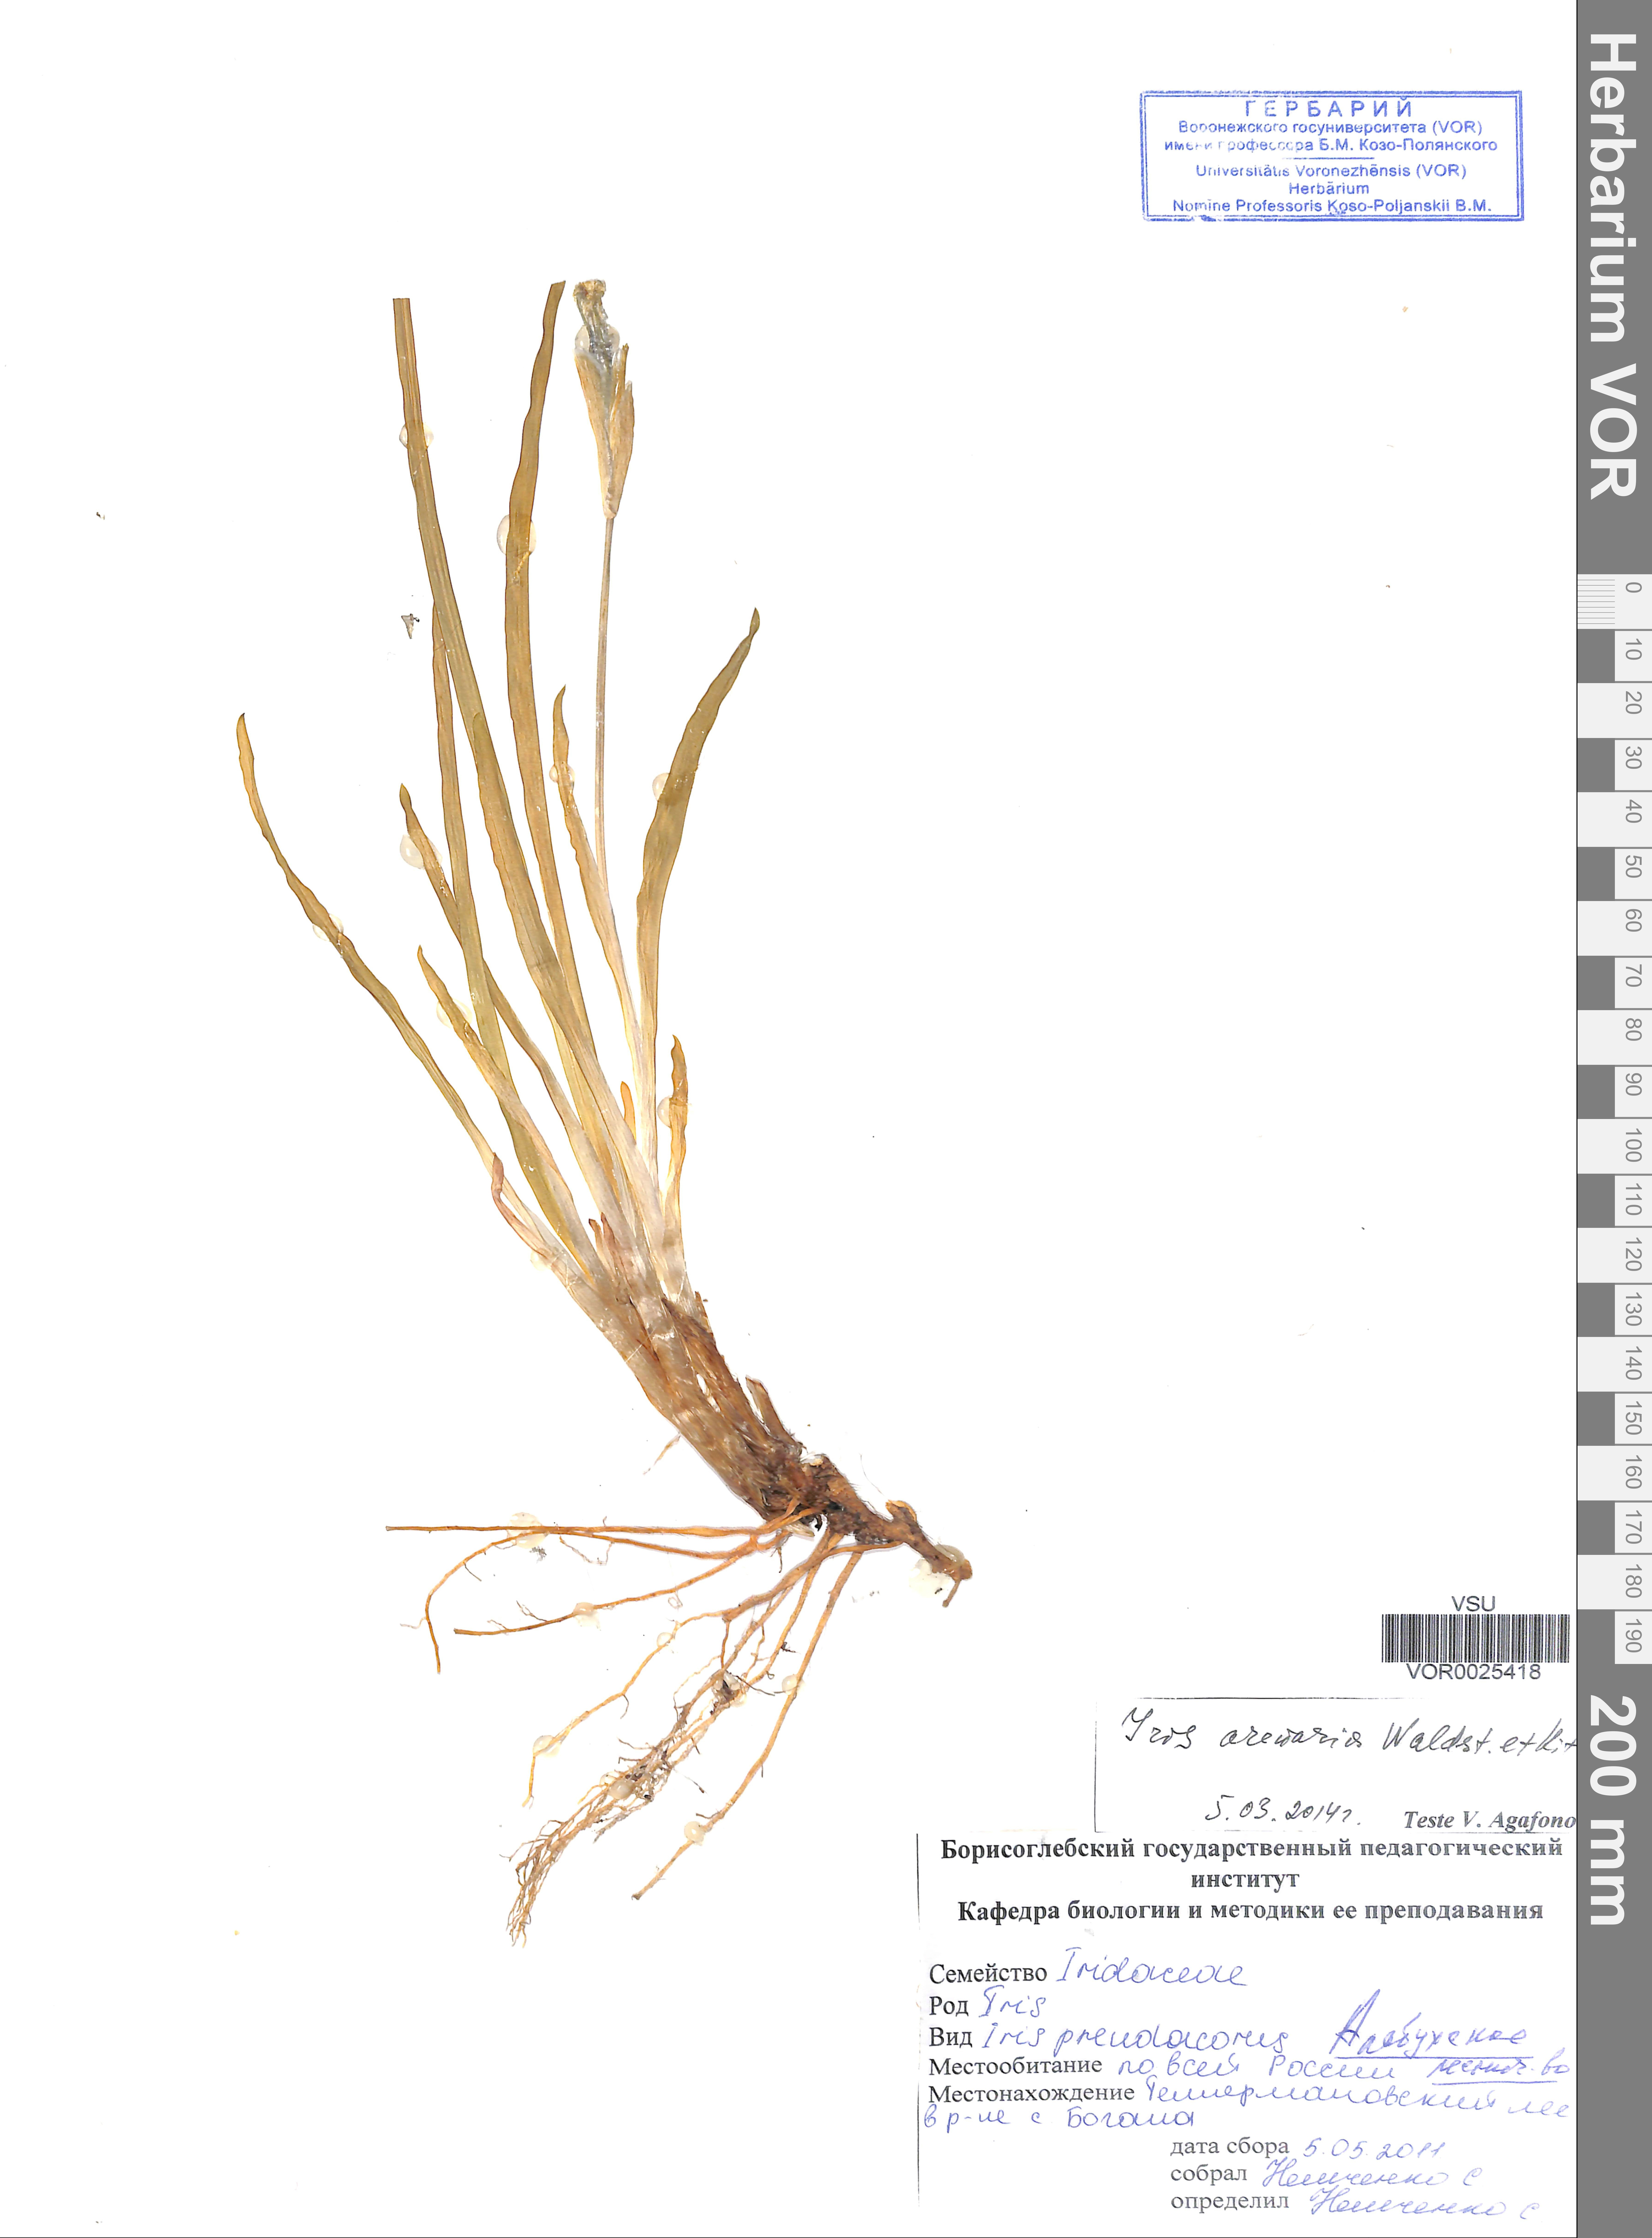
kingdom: Plantae
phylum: Tracheophyta
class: Liliopsida
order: Asparagales
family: Iridaceae
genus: Iris
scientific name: Iris arenaria
